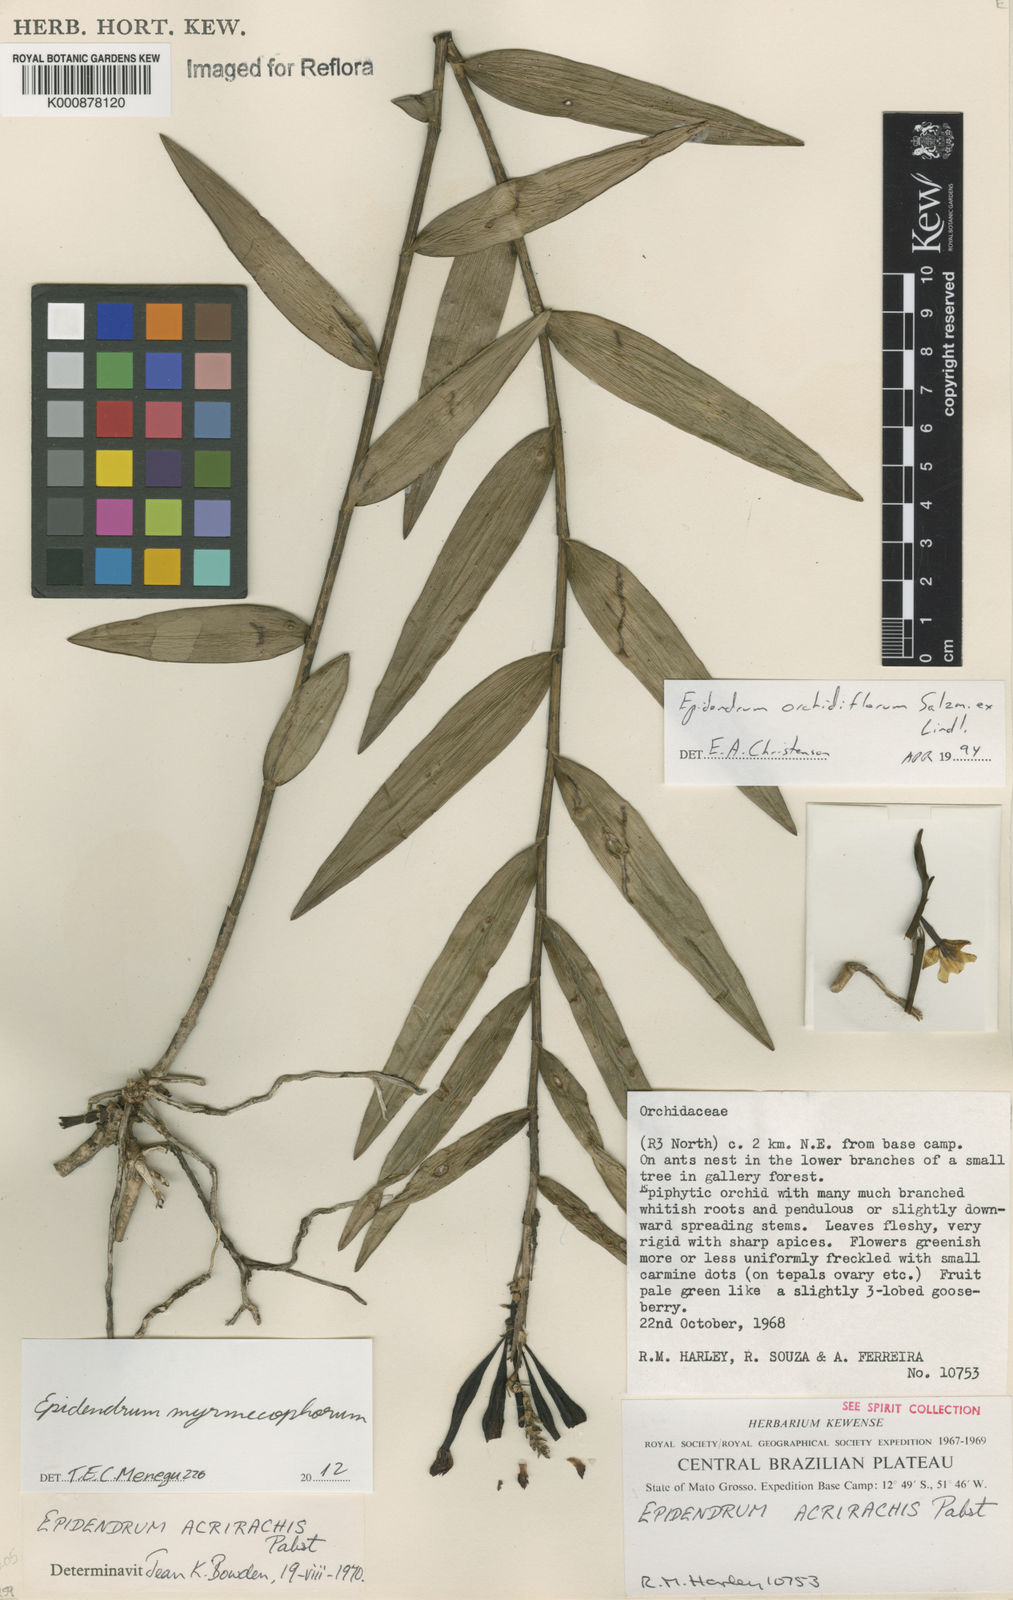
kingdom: Plantae
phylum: Tracheophyta
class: Liliopsida
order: Asparagales
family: Orchidaceae
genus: Epidendrum
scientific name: Epidendrum myrmecophorum
